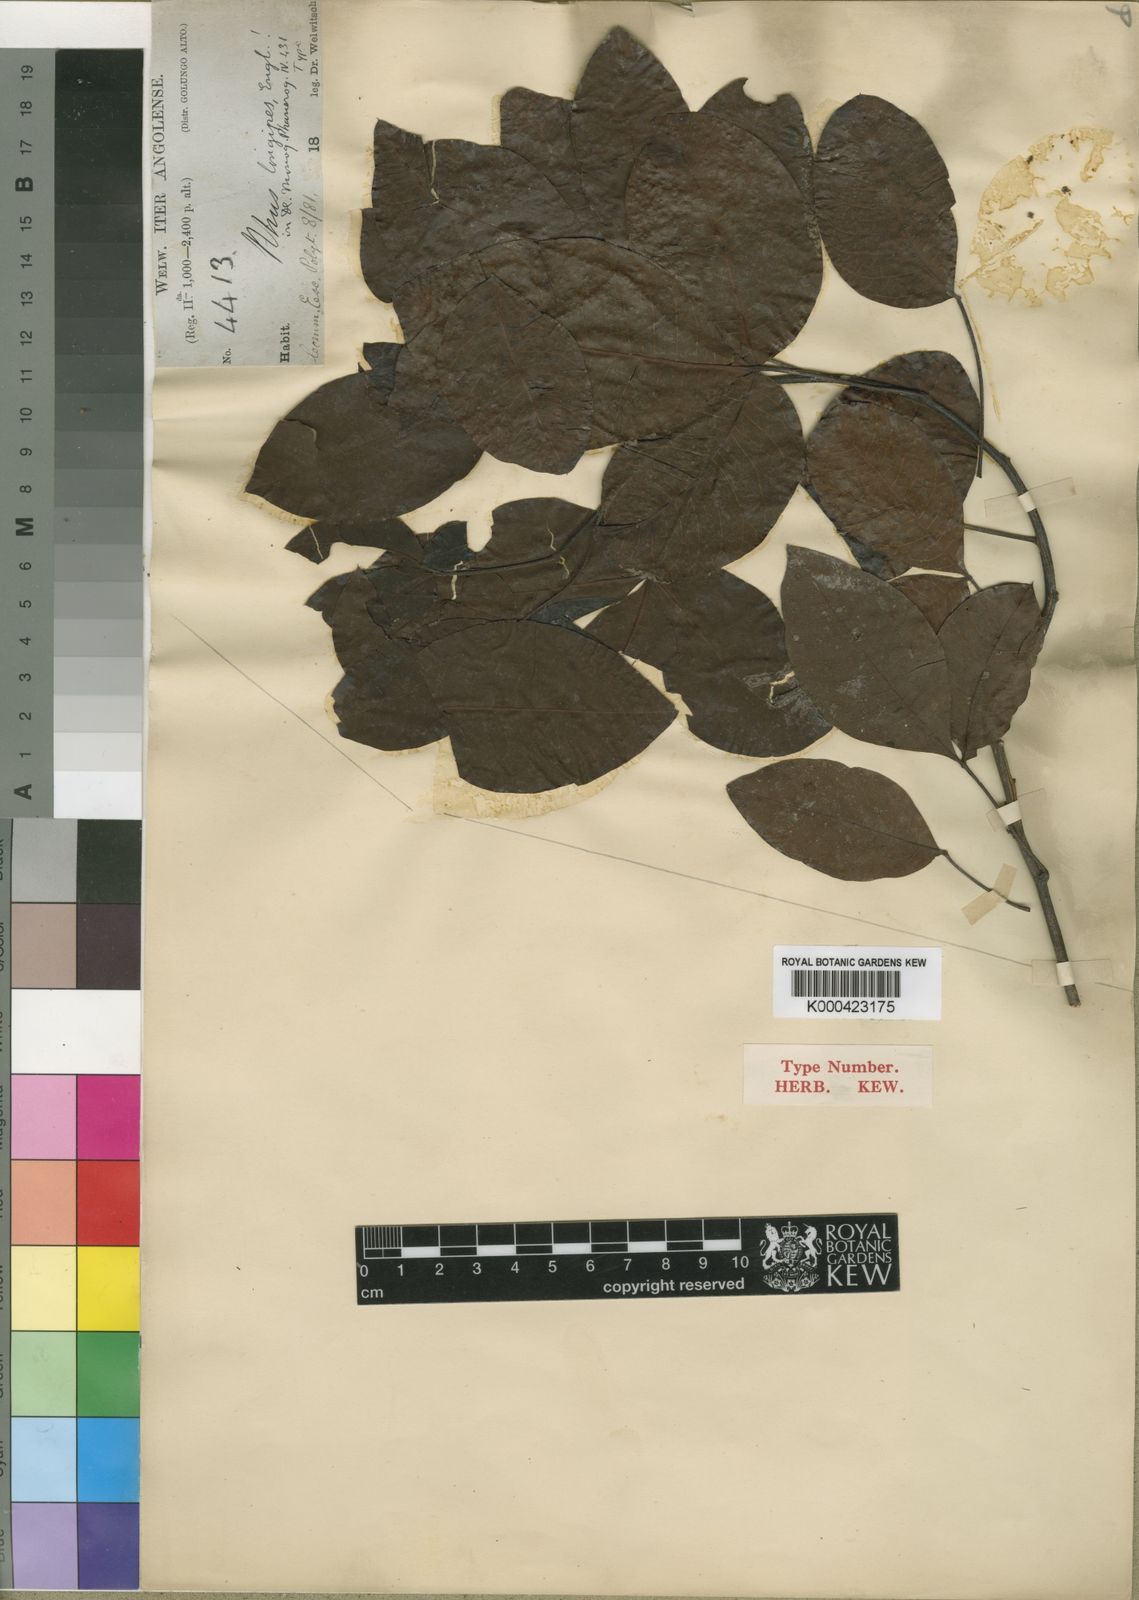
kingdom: Plantae
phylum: Tracheophyta
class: Magnoliopsida
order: Sapindales
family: Anacardiaceae
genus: Searsia
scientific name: Searsia longipes
